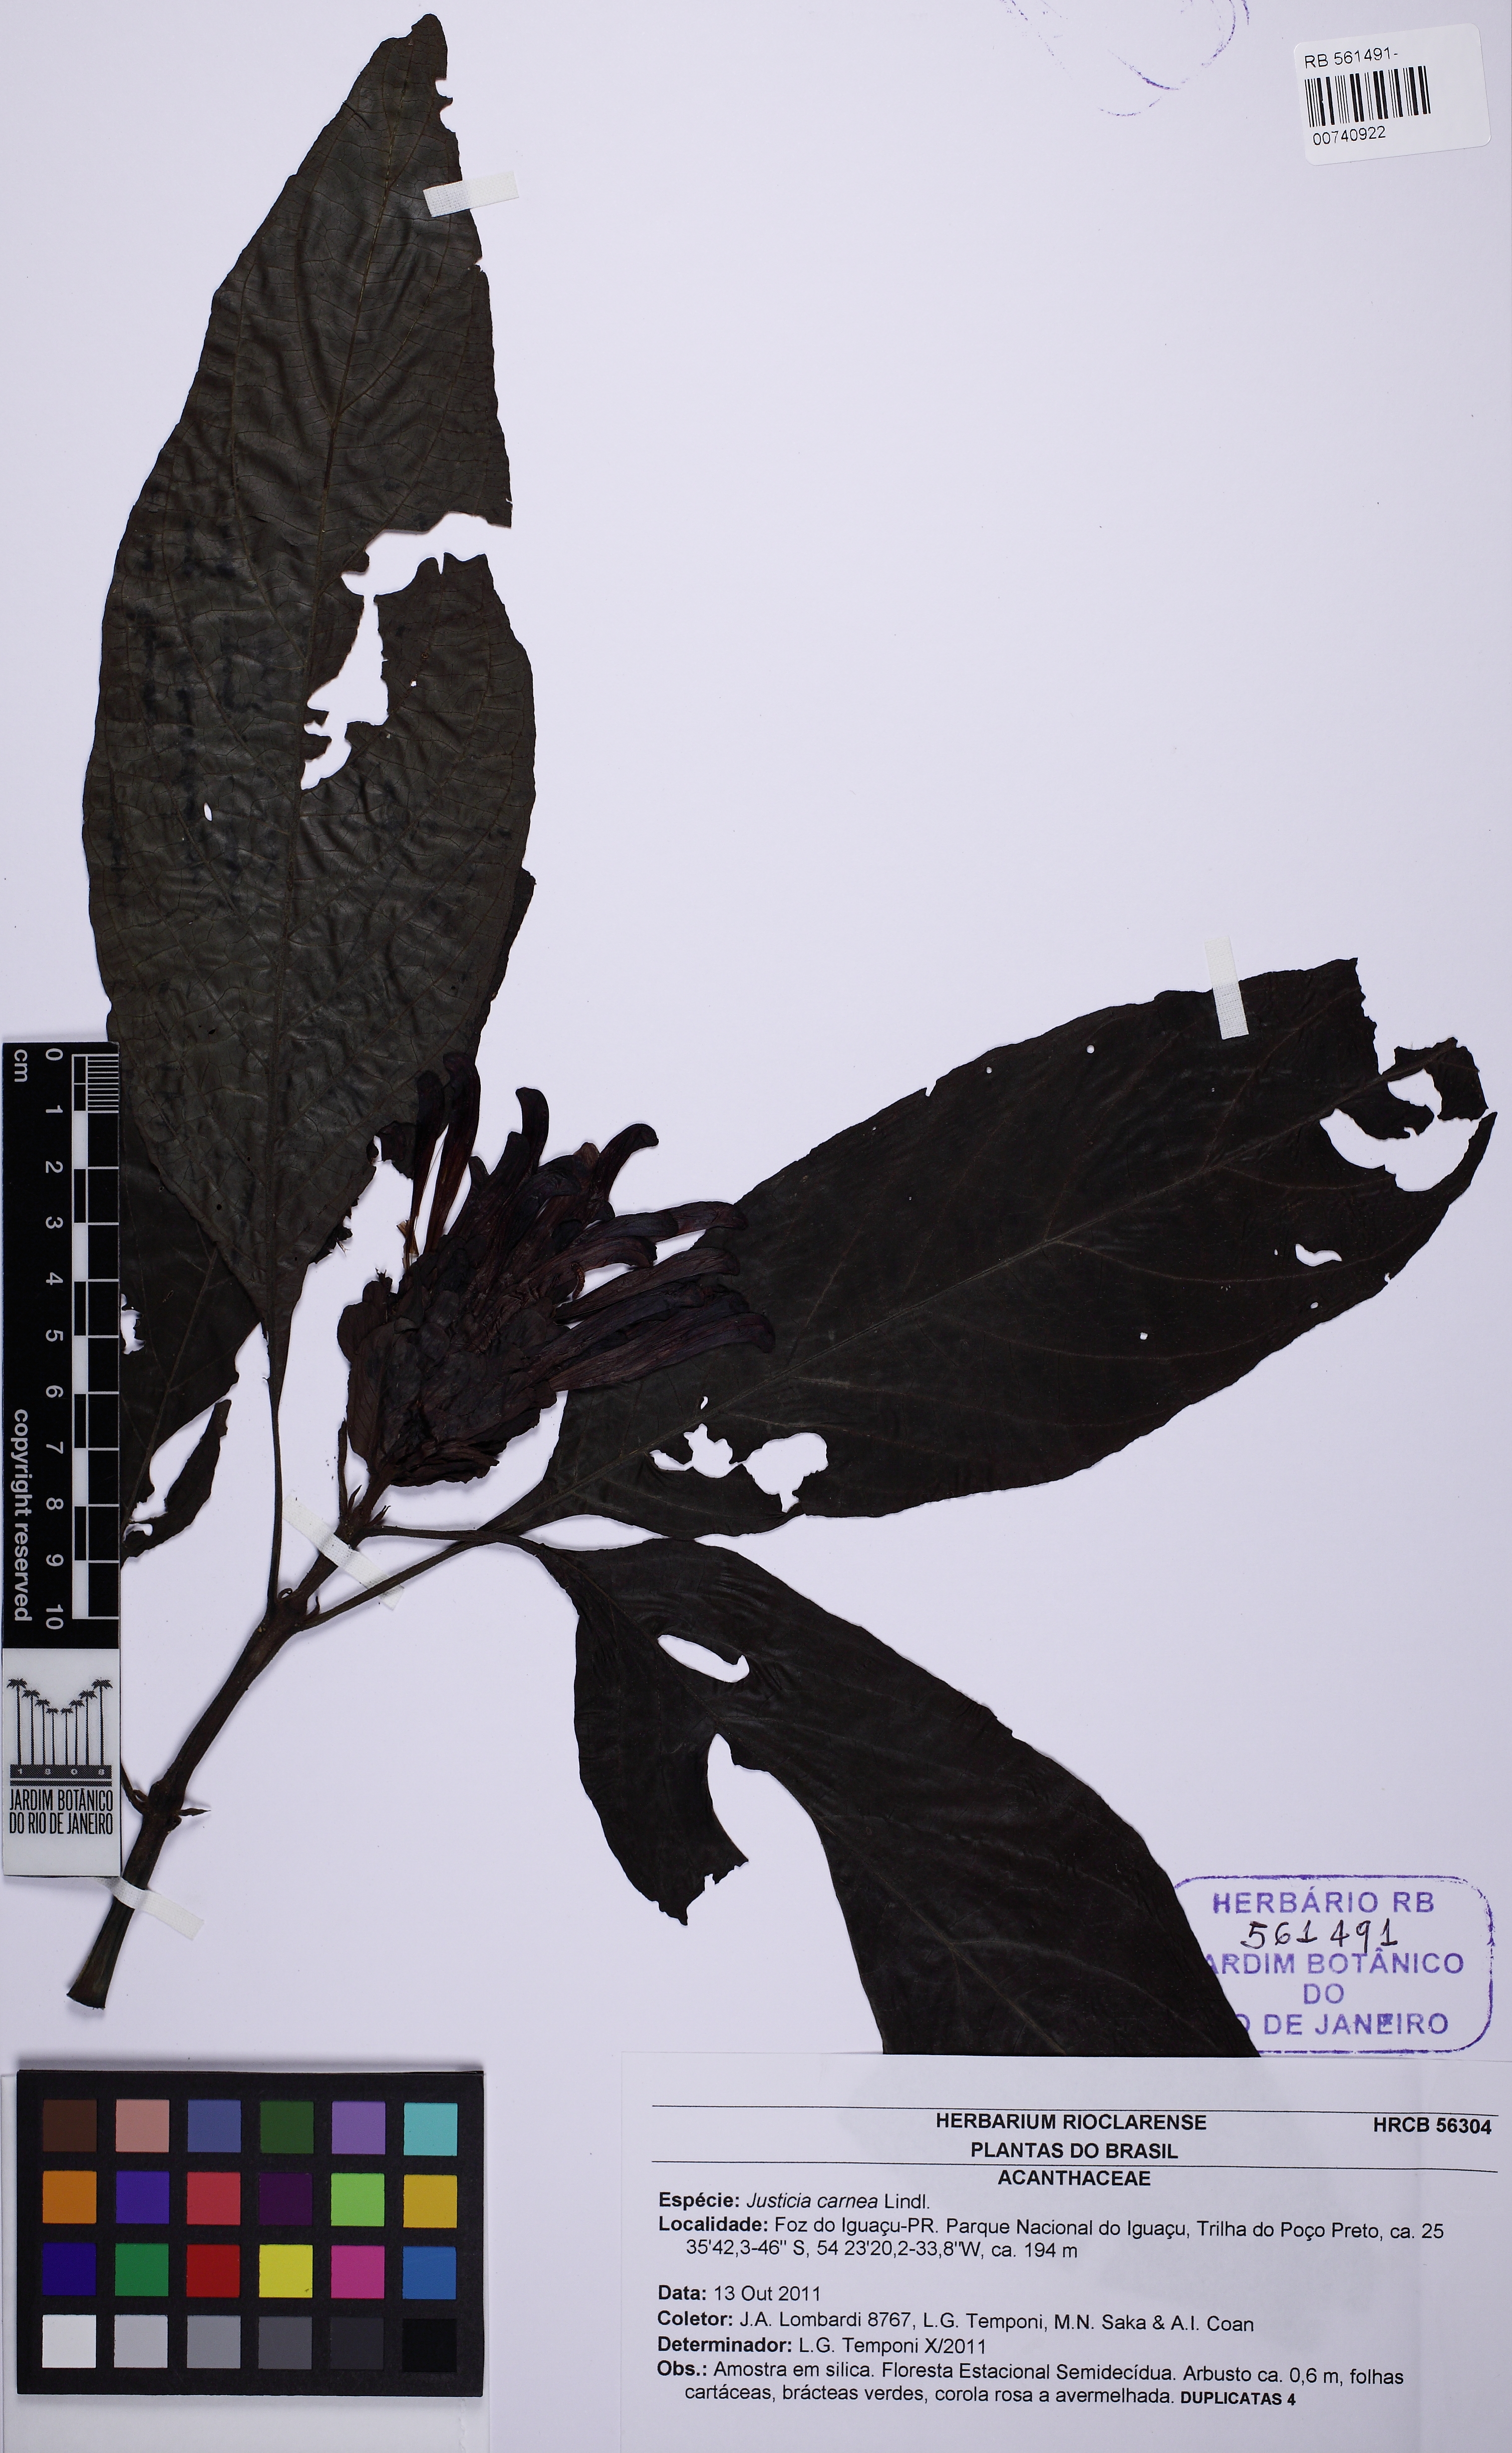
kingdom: Plantae
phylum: Tracheophyta
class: Magnoliopsida
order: Lamiales
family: Acanthaceae
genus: Justicia
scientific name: Justicia carnea
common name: Brazilian-plume
